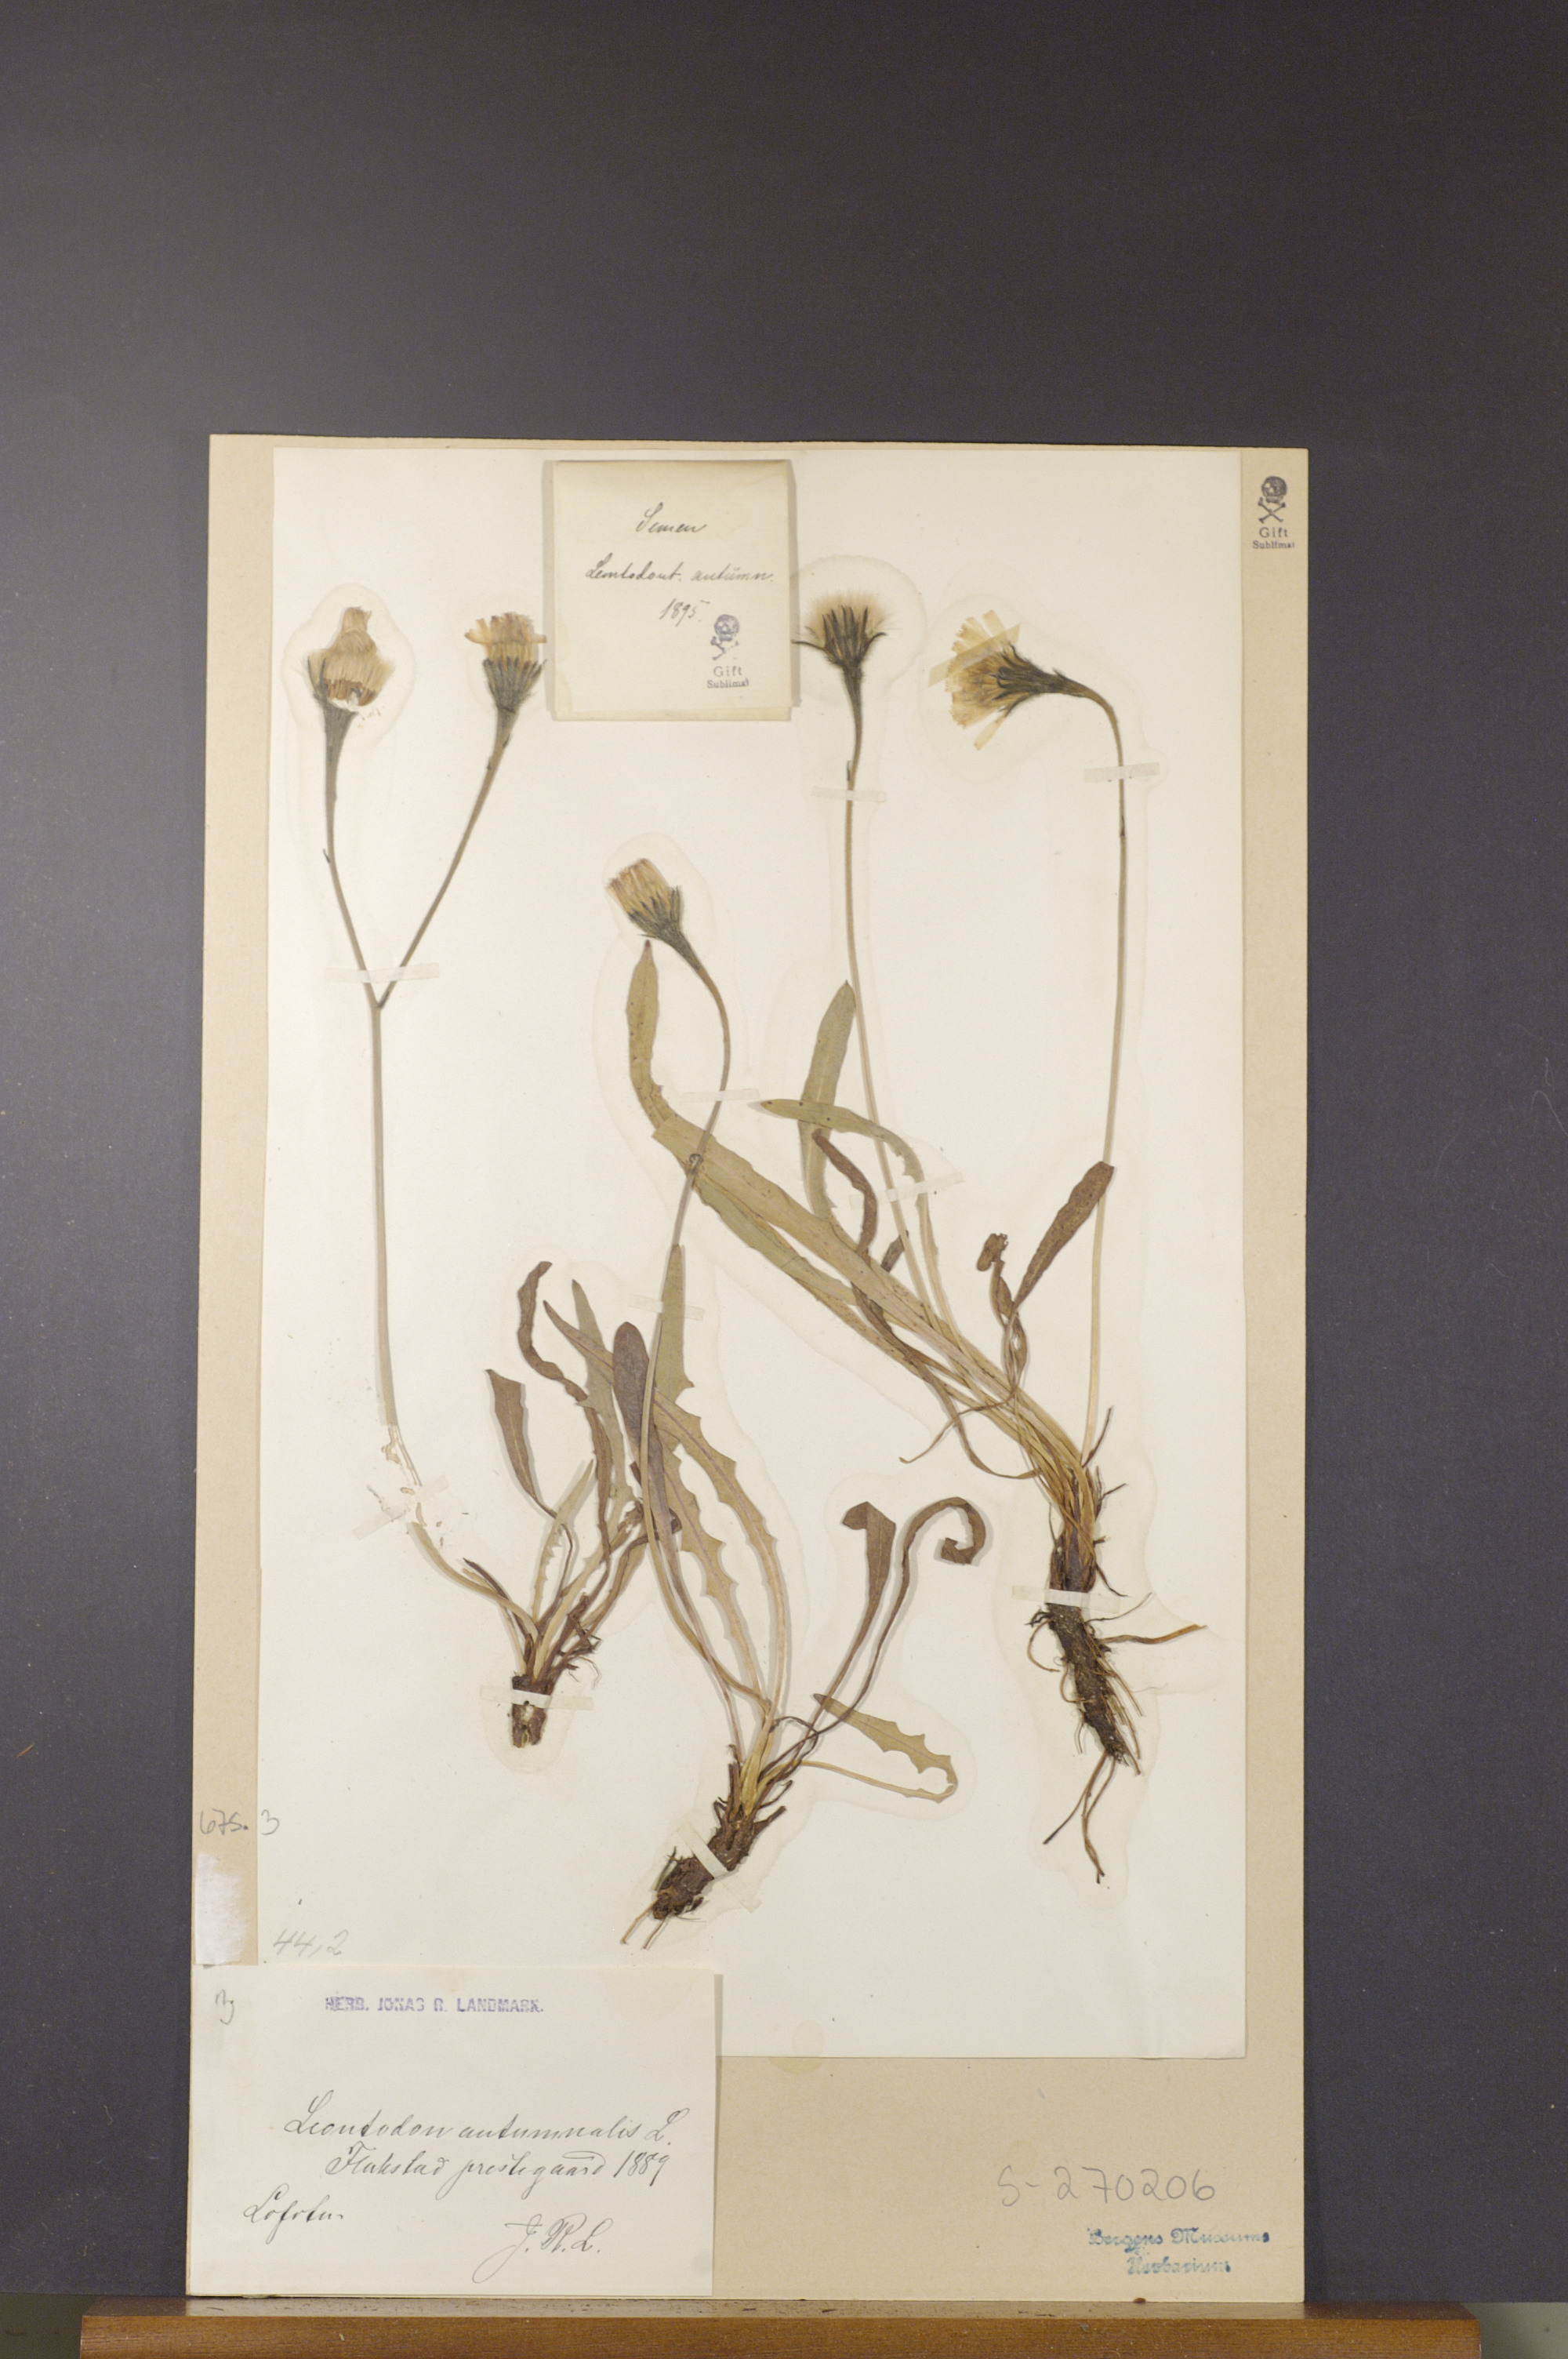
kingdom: Plantae
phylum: Tracheophyta
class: Magnoliopsida
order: Asterales
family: Asteraceae
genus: Scorzoneroides
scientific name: Scorzoneroides autumnalis
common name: Autumn hawkbit
